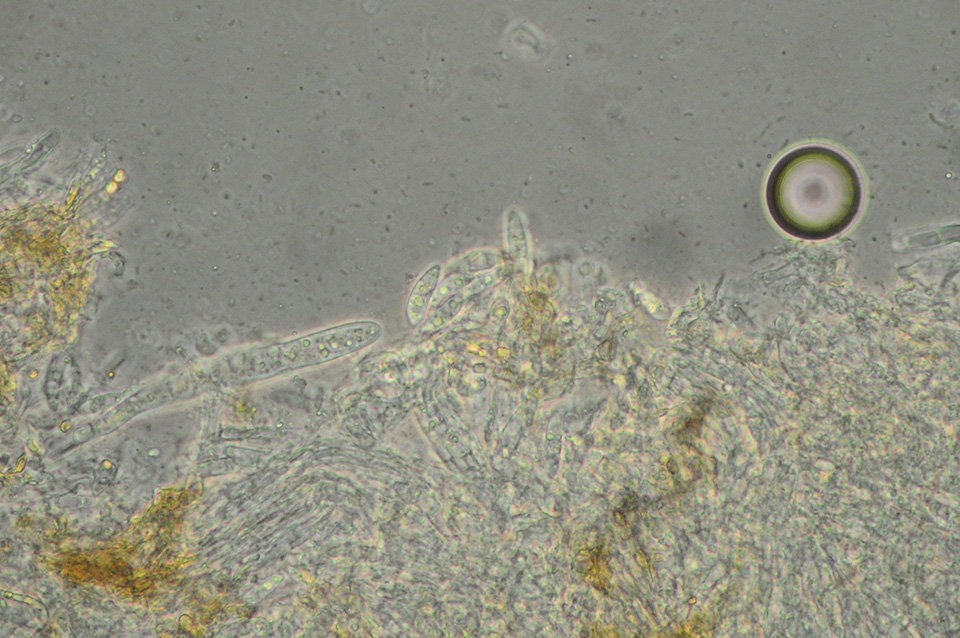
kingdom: Fungi
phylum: Ascomycota
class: Leotiomycetes
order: Helotiales
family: Pezizellaceae
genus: Pezizella
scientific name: Pezizella
